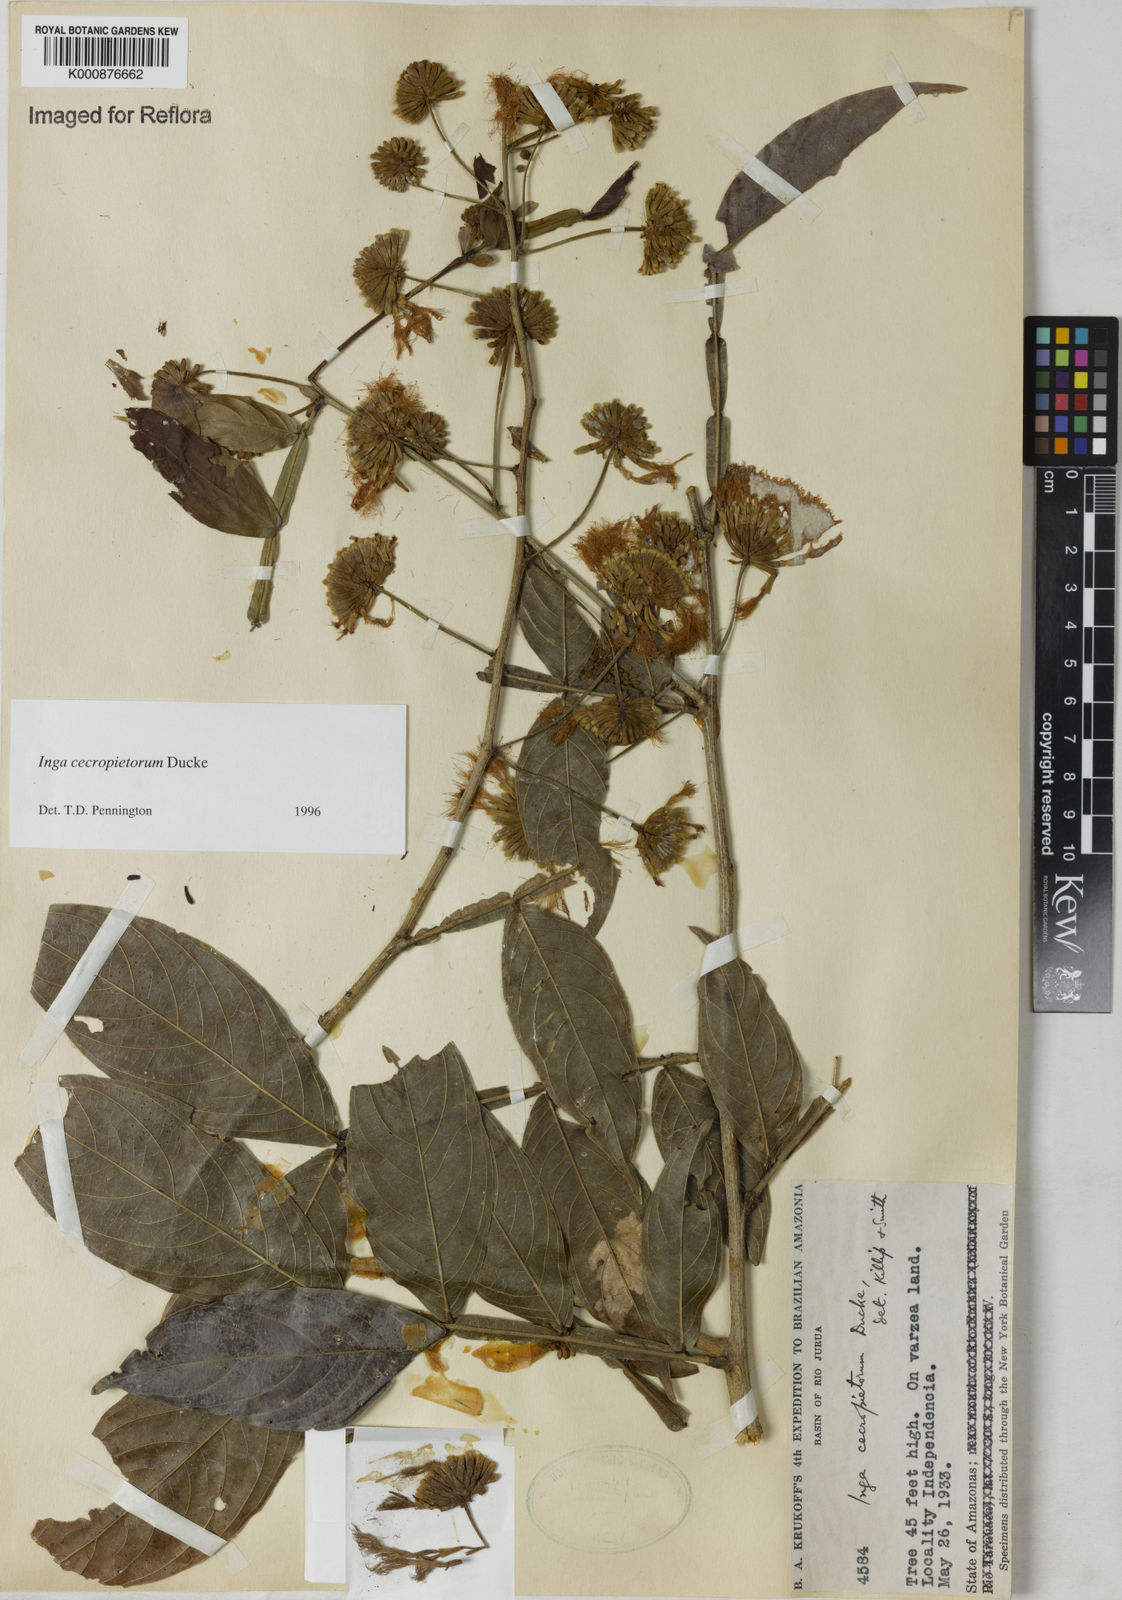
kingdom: Plantae
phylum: Tracheophyta
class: Magnoliopsida
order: Fabales
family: Fabaceae
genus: Inga
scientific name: Inga cecropietorum
